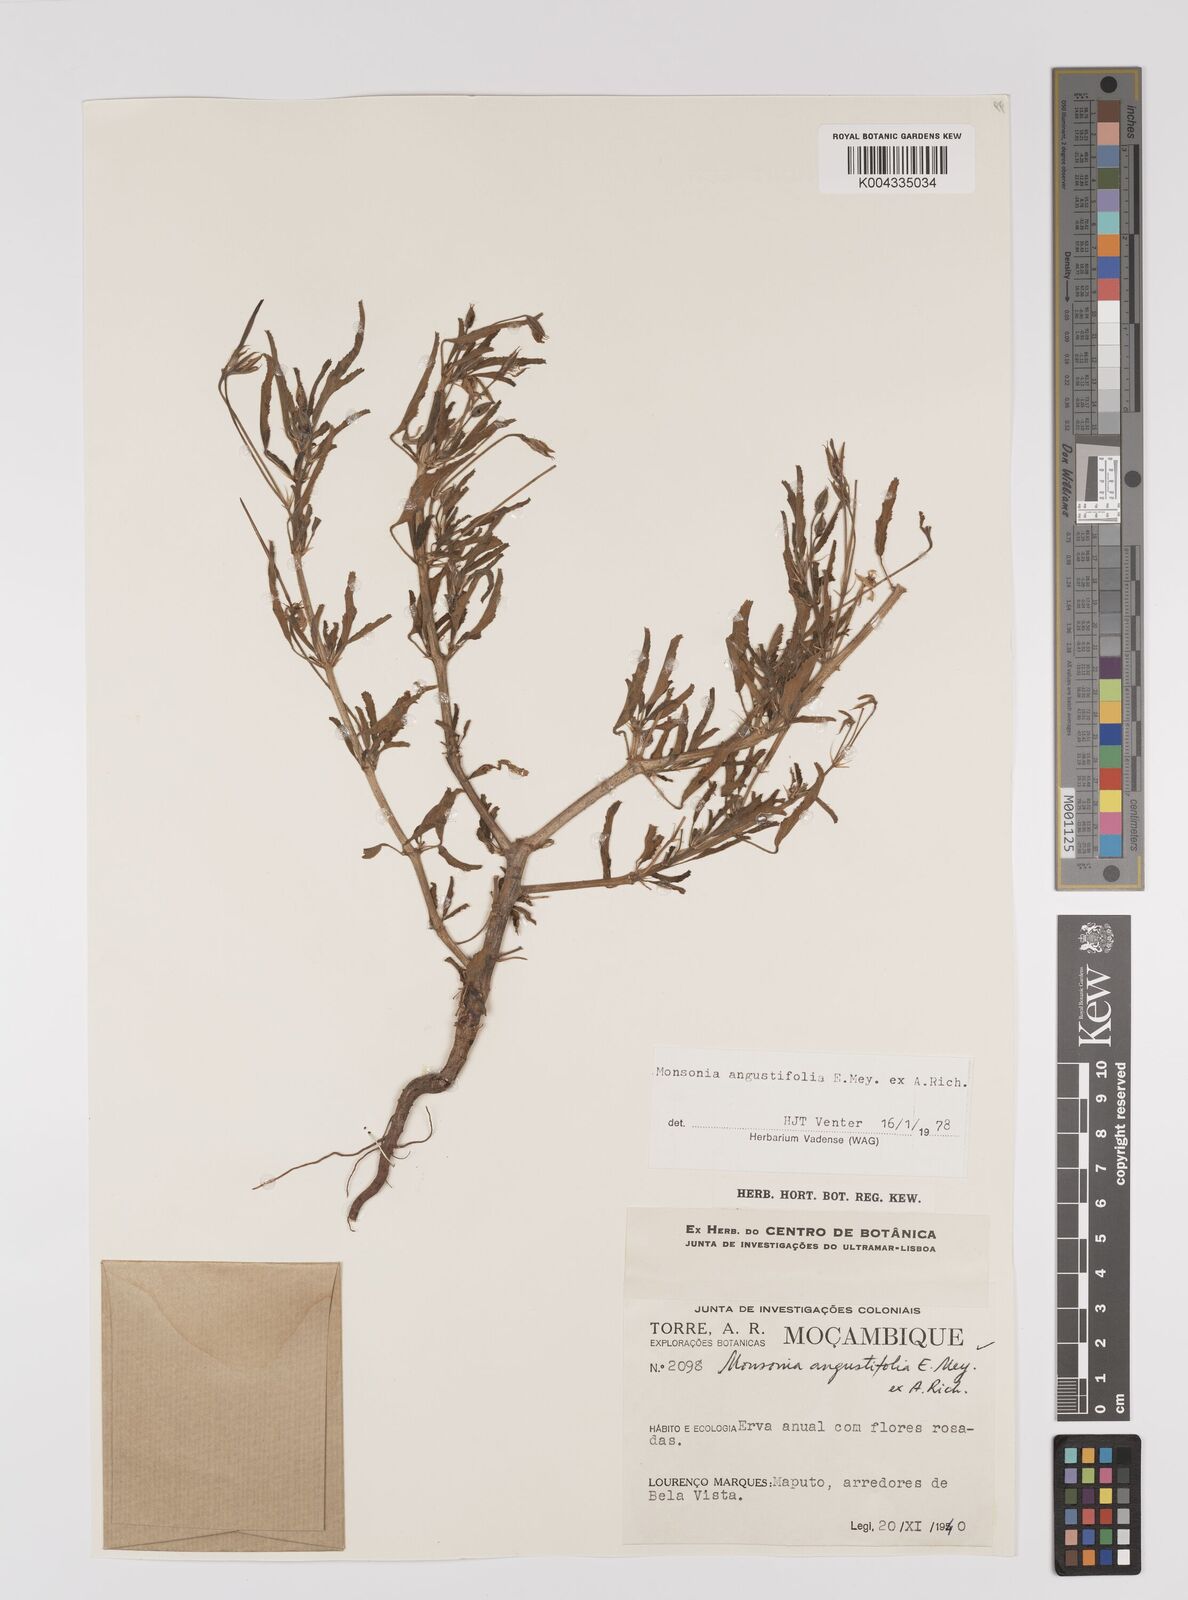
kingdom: Plantae
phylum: Tracheophyta
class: Magnoliopsida
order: Geraniales
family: Geraniaceae
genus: Monsonia
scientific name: Monsonia angustifolia
